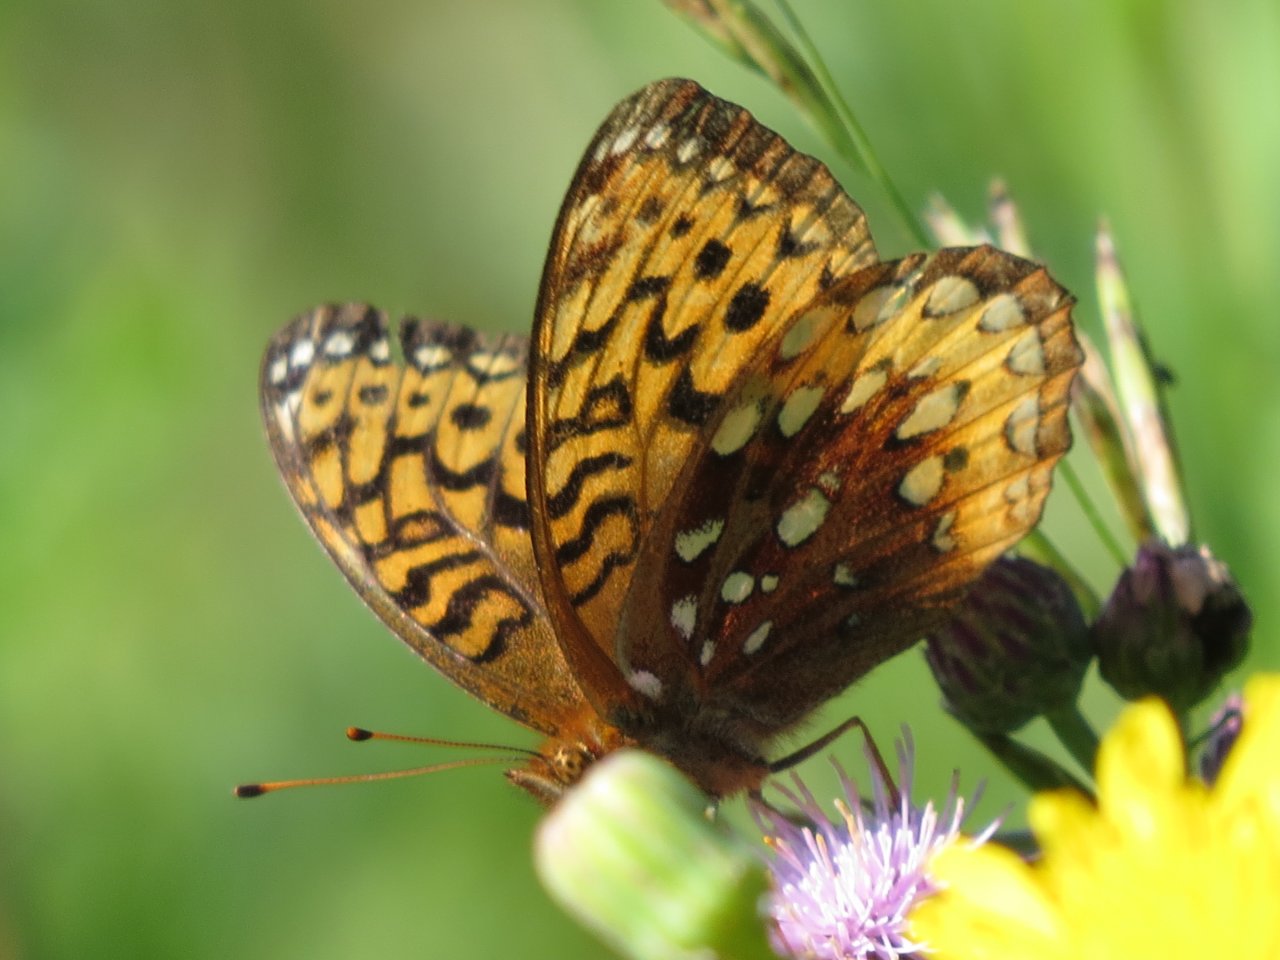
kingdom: Animalia
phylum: Arthropoda
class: Insecta
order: Lepidoptera
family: Nymphalidae
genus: Speyeria
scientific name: Speyeria cybele
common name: Great Spangled Fritillary
